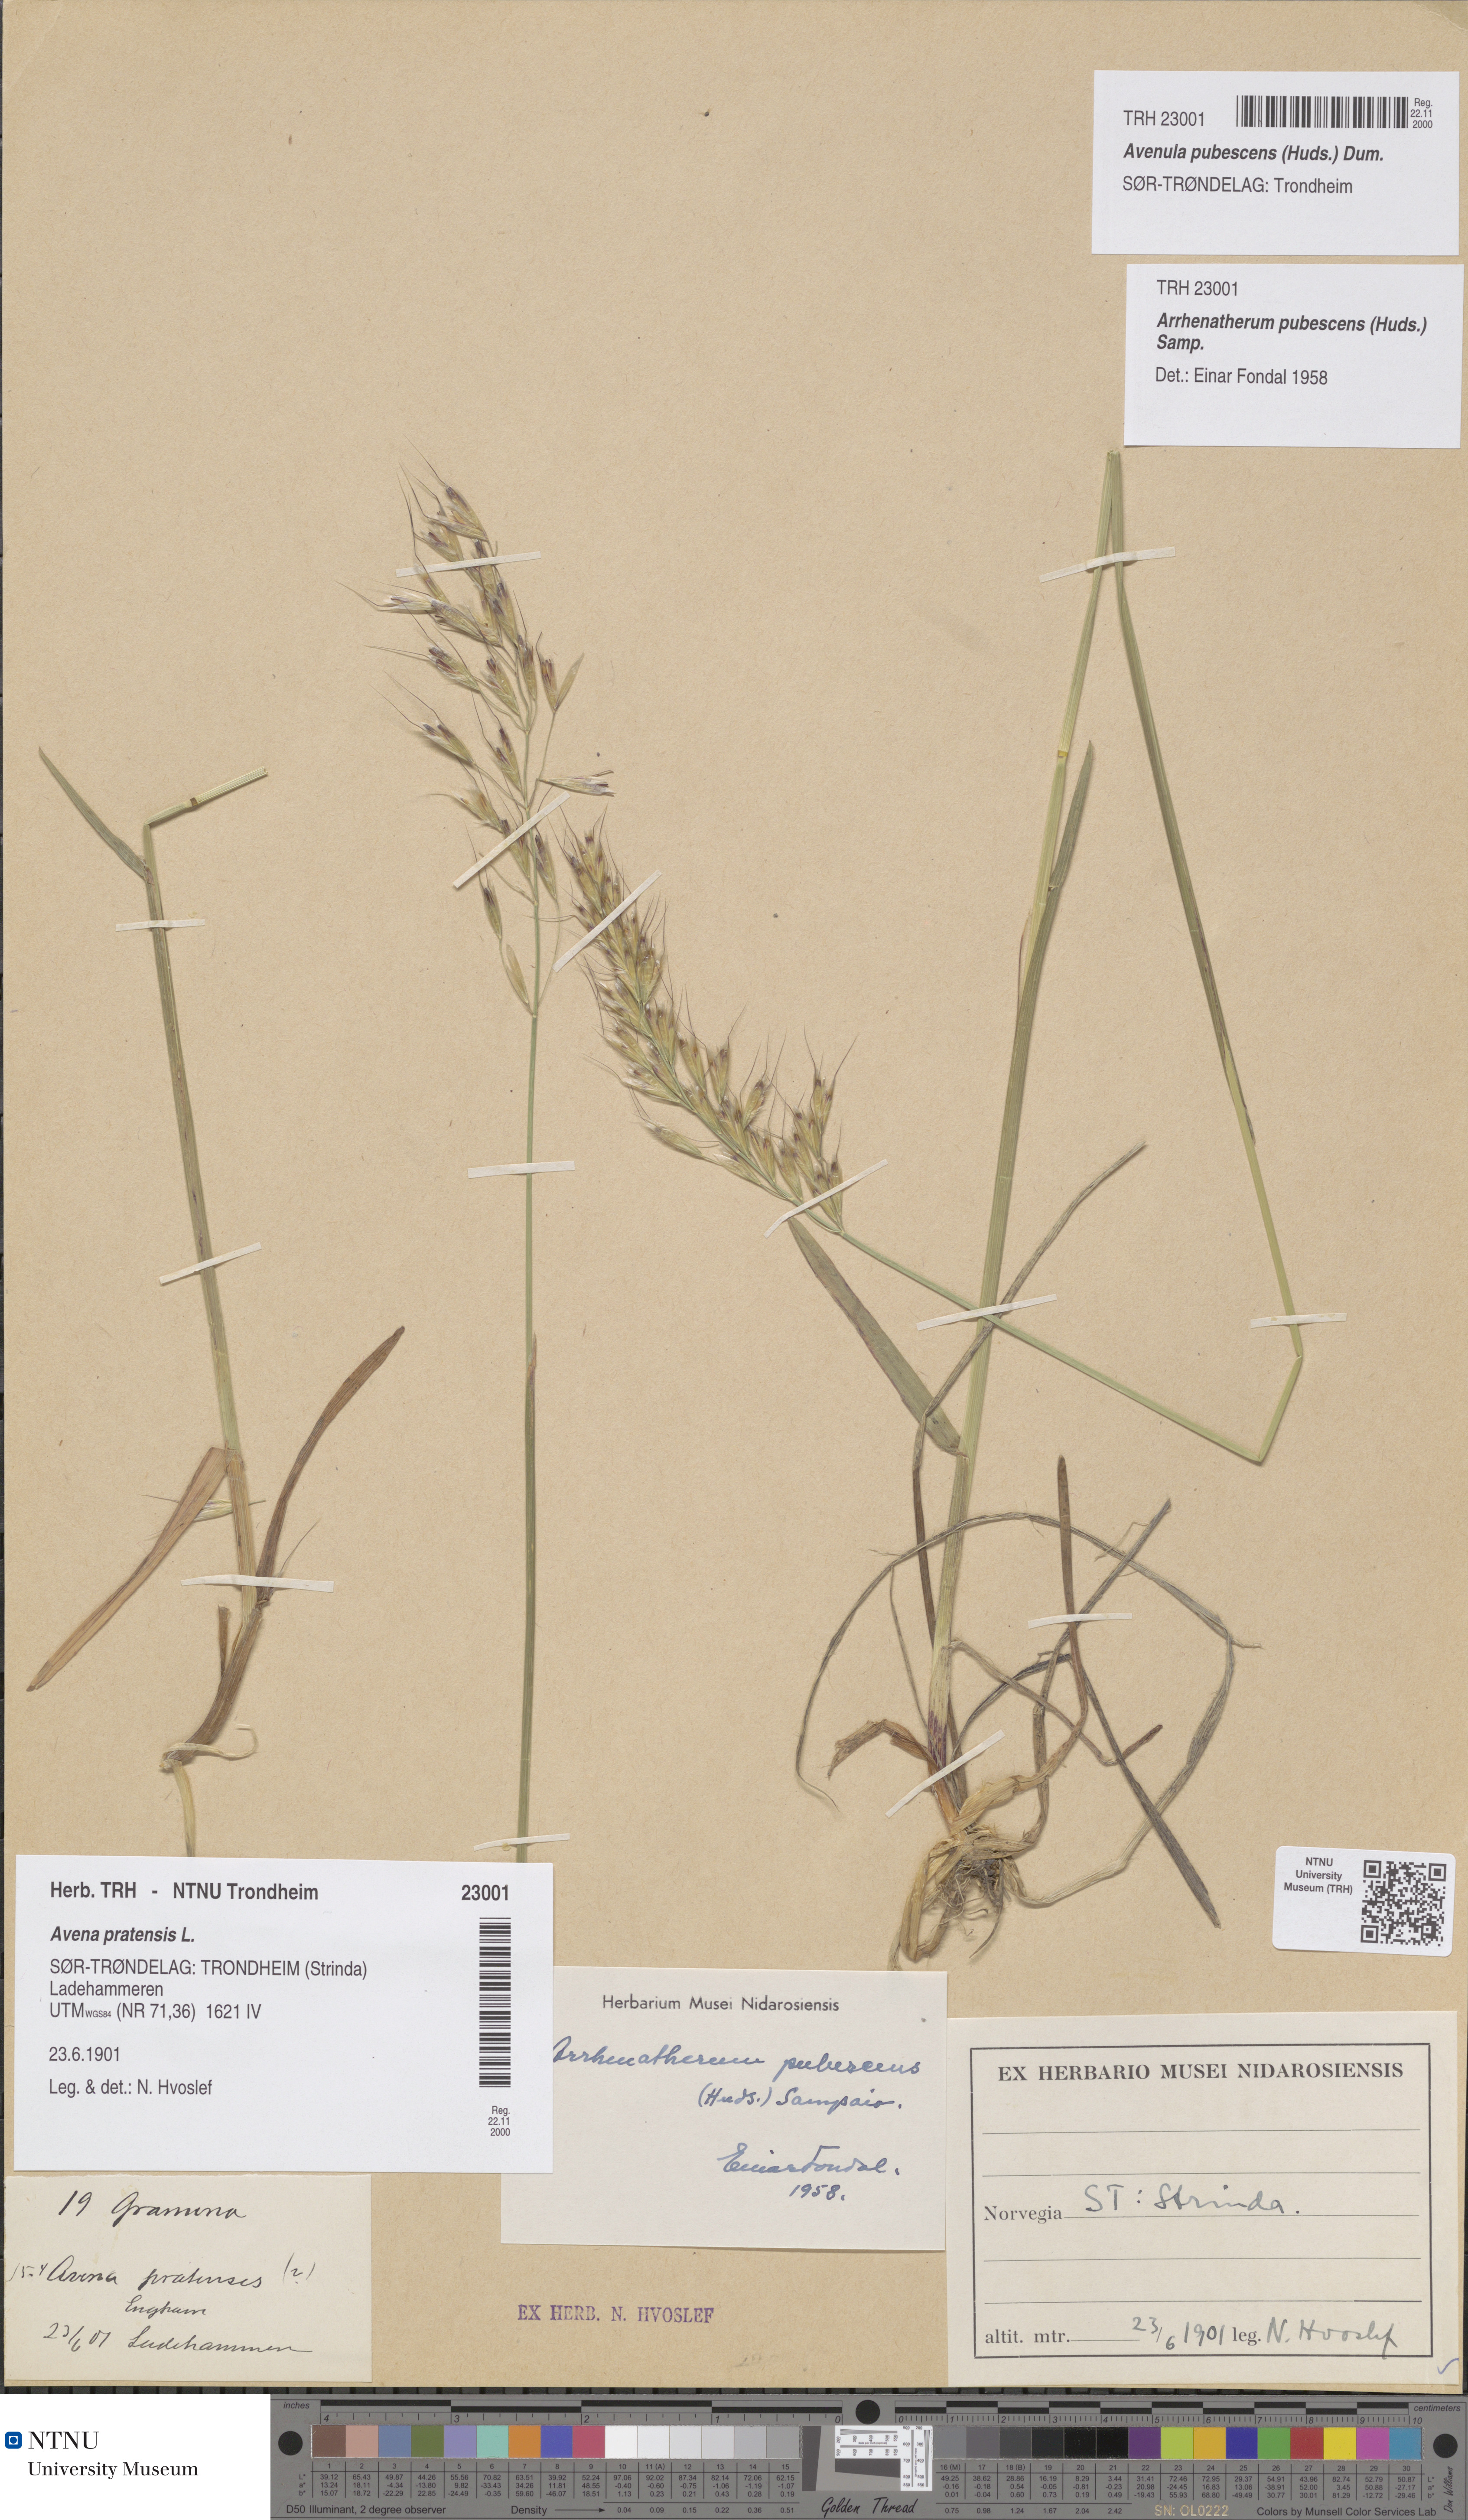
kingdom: Plantae
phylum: Tracheophyta
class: Liliopsida
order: Poales
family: Poaceae
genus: Avenula
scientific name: Avenula pubescens
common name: Downy alpine oatgrass
